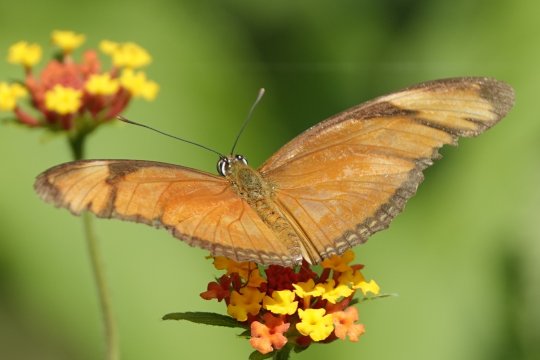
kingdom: Animalia
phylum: Arthropoda
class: Insecta
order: Lepidoptera
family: Nymphalidae
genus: Dione
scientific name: Dione juno
